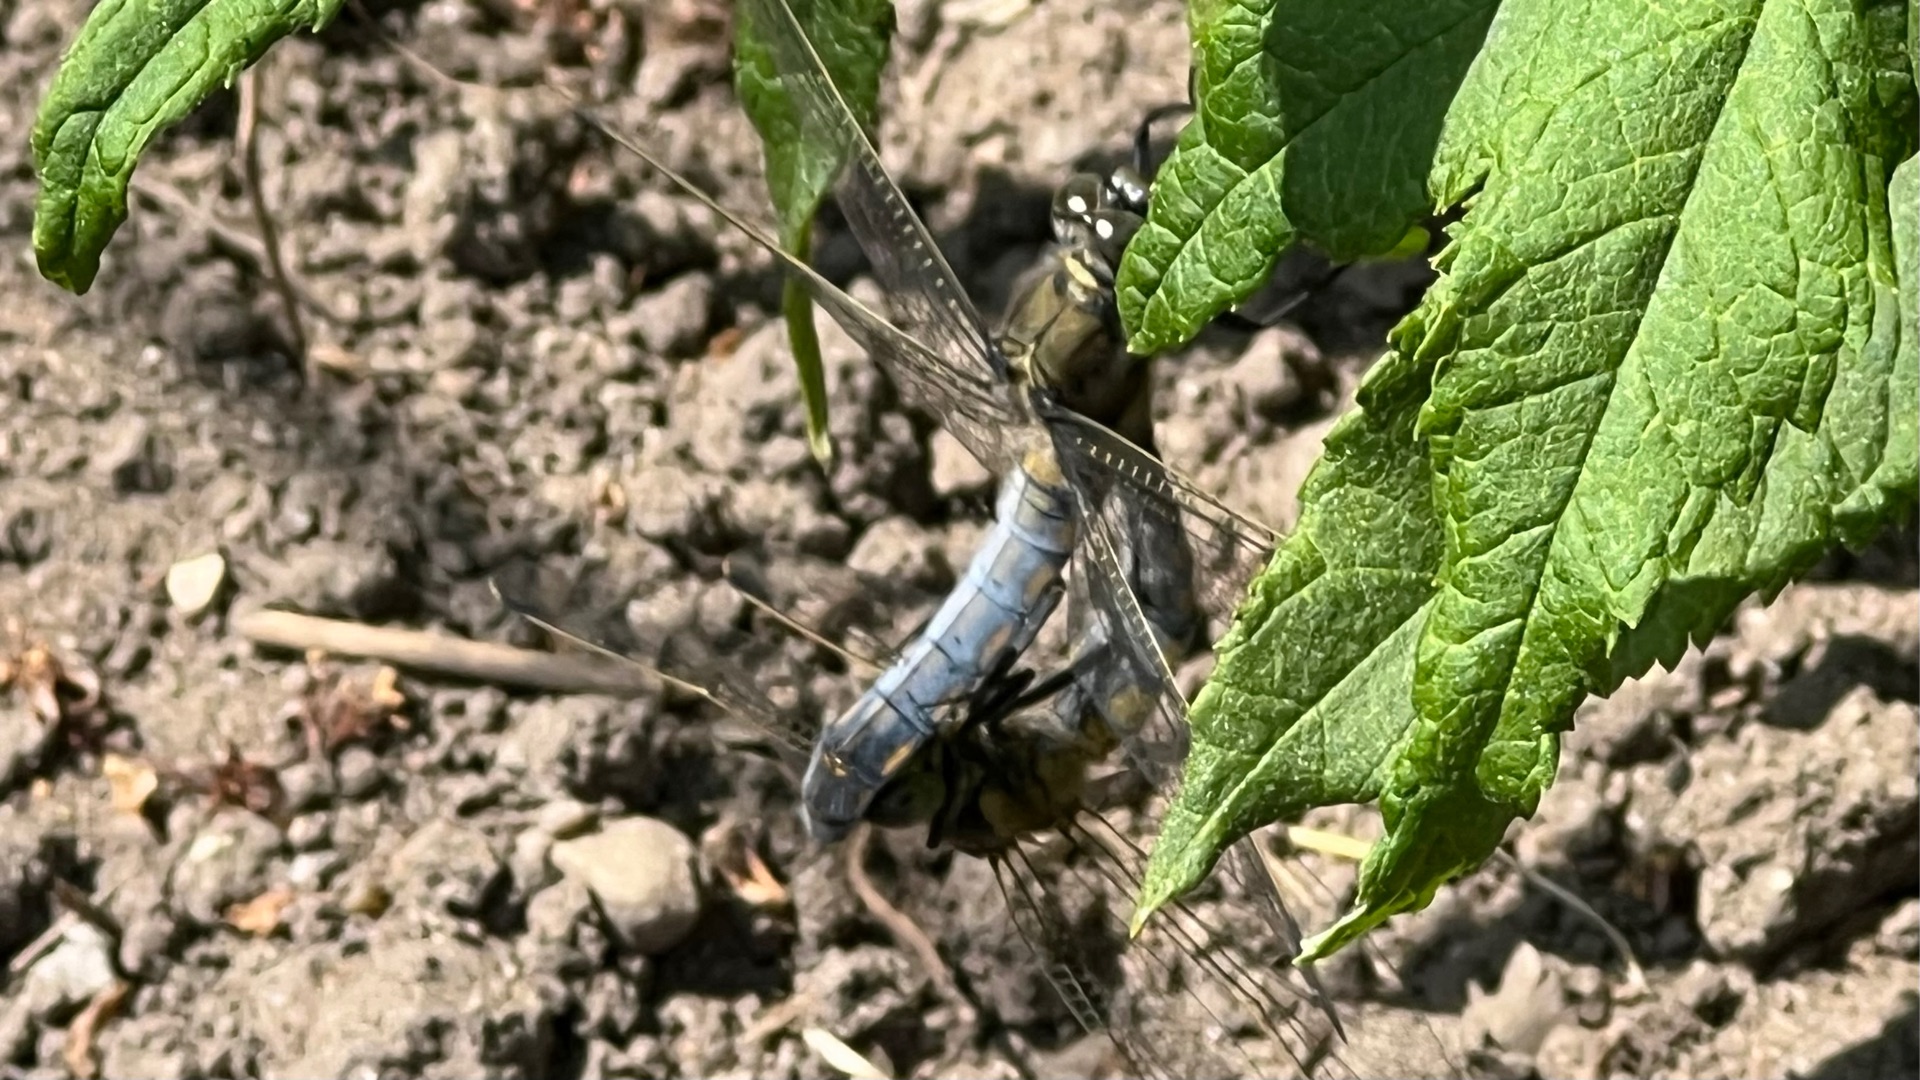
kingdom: Animalia
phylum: Arthropoda
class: Insecta
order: Odonata
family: Libellulidae
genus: Orthetrum
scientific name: Orthetrum cancellatum
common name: Stor blåpil
